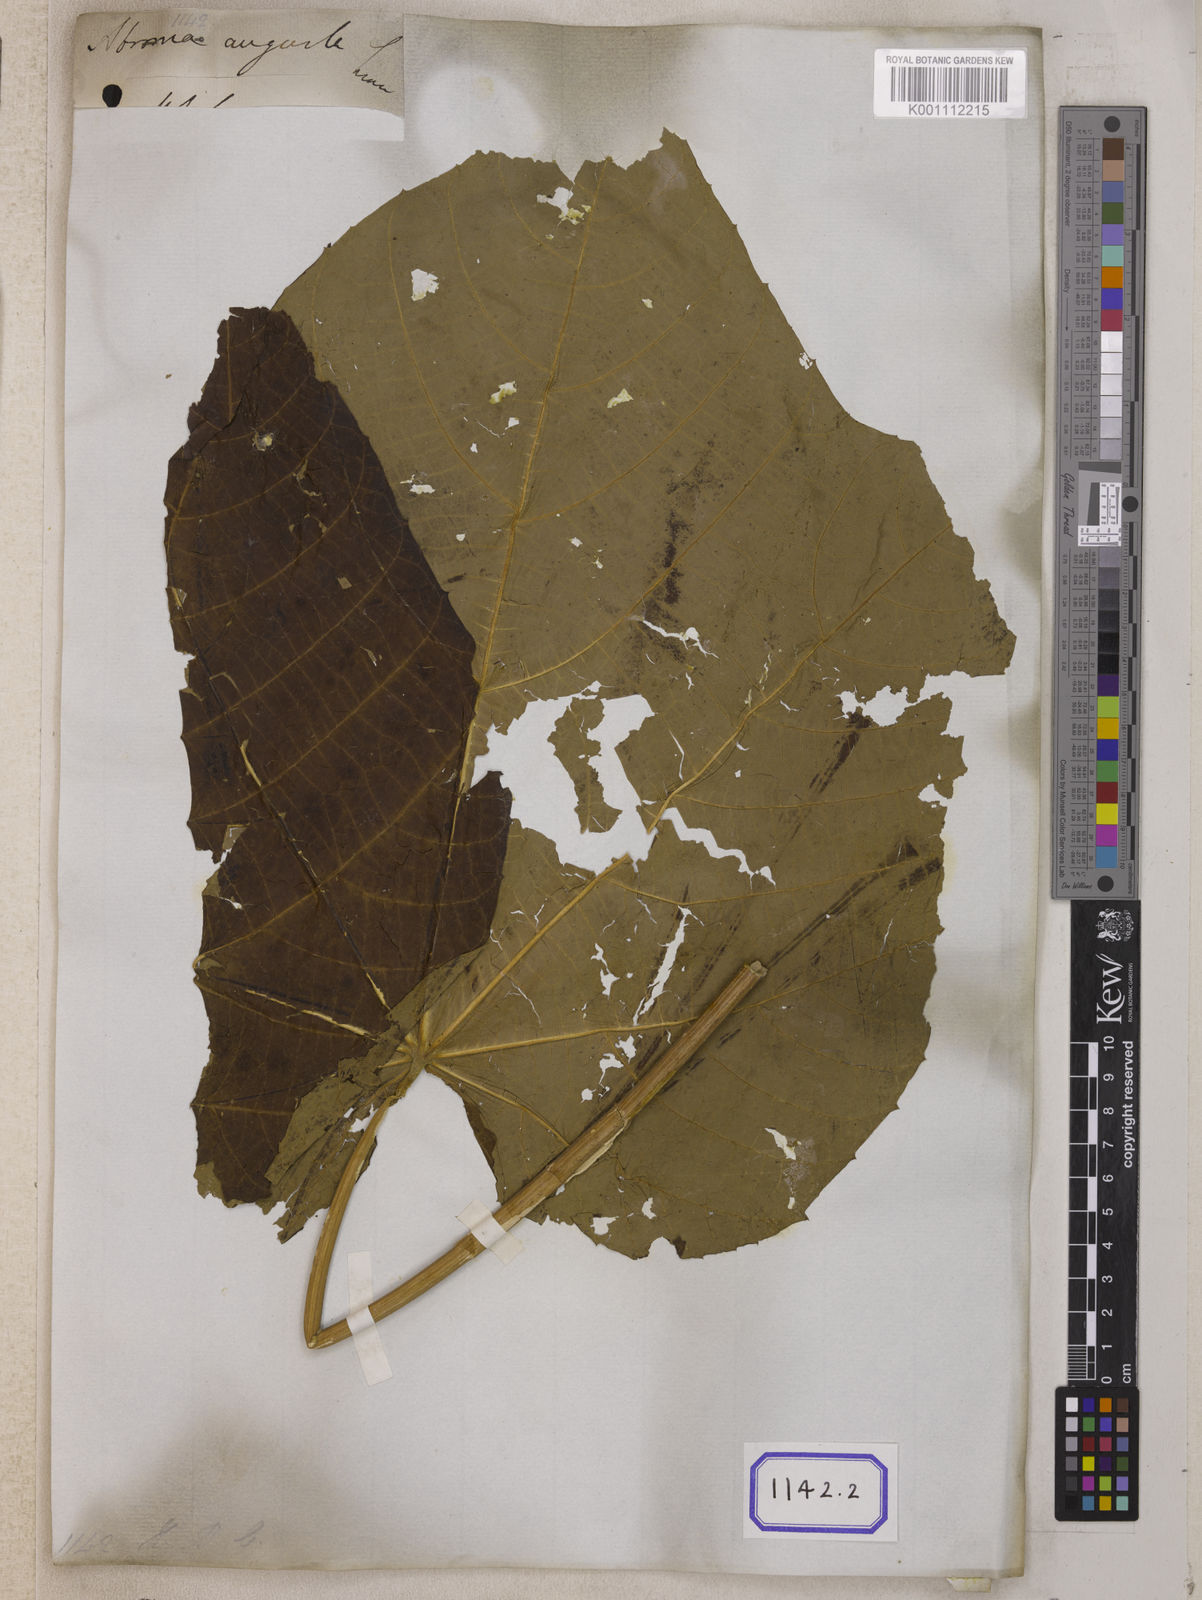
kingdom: Plantae
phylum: Tracheophyta
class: Magnoliopsida
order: Malvales
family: Malvaceae
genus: Abroma
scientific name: Abroma augustum
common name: Devil's-cotton
